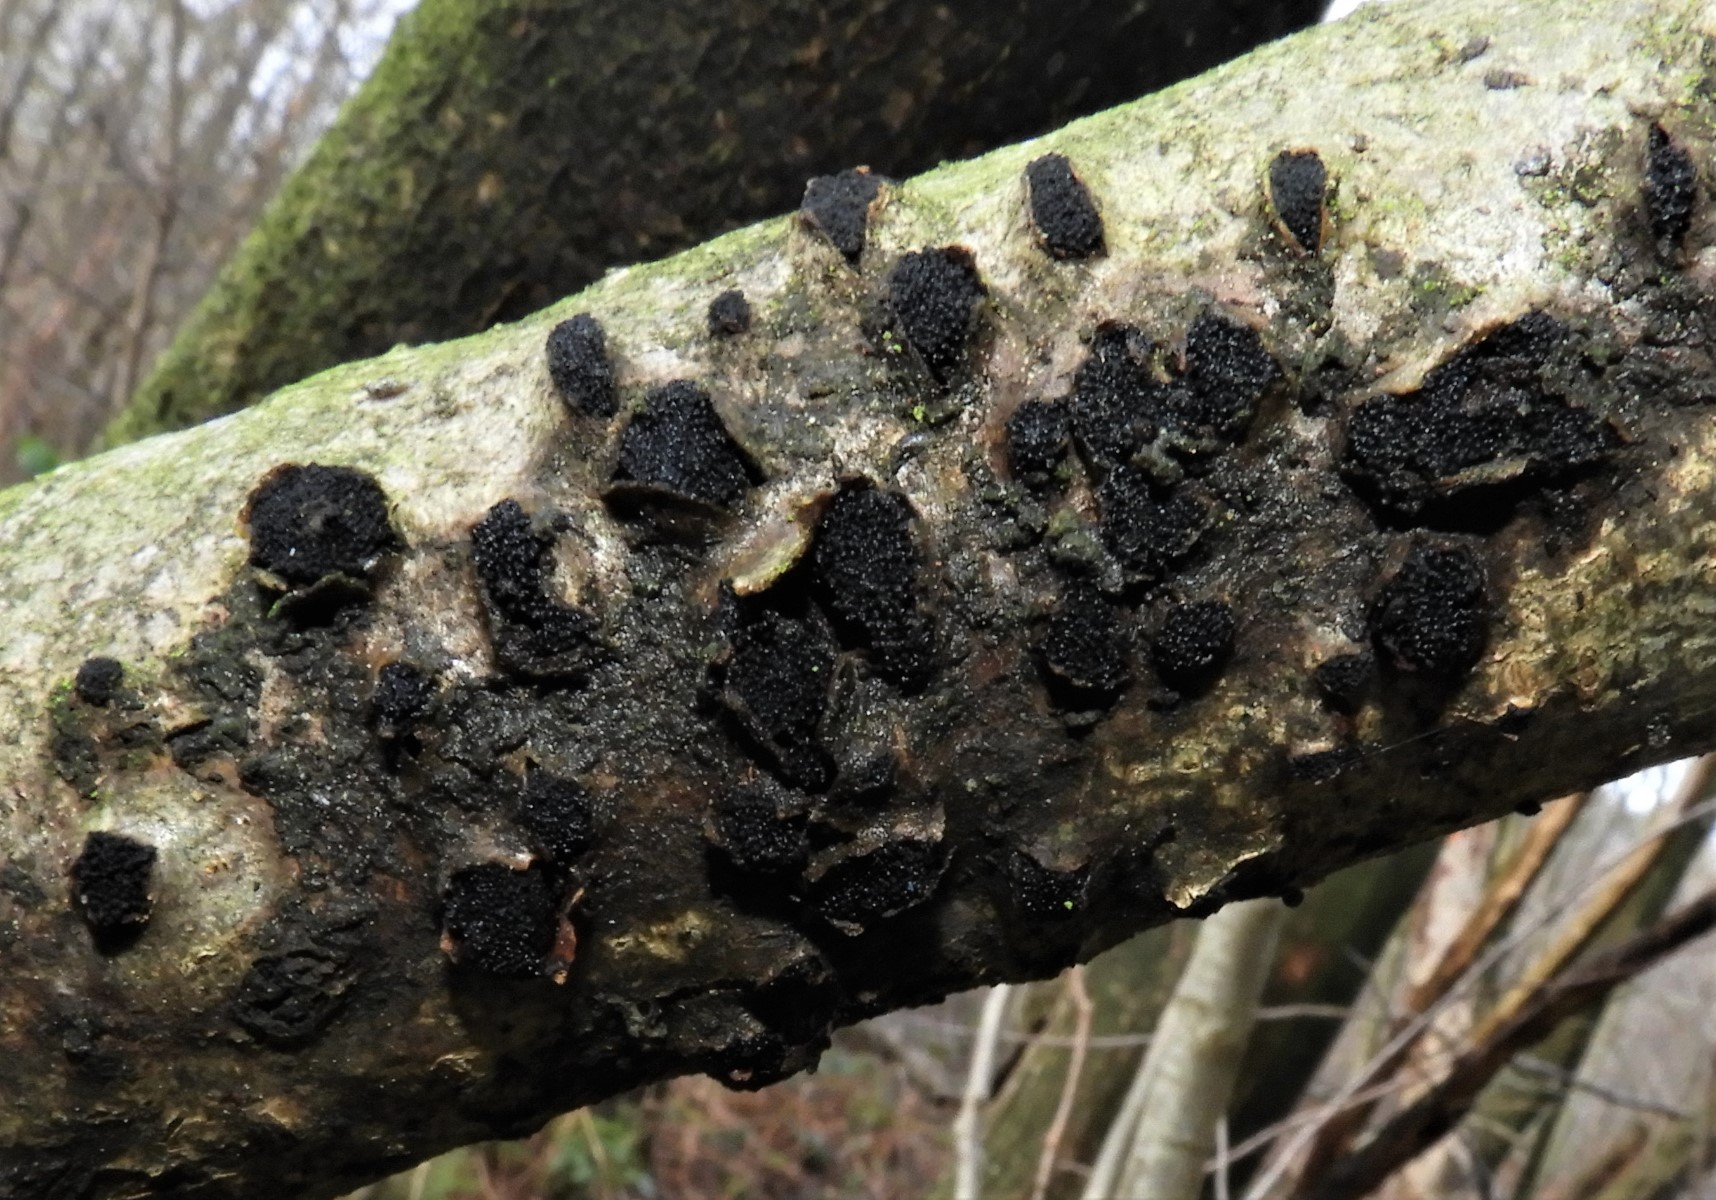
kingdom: Fungi
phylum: Ascomycota
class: Sordariomycetes
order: Xylariales
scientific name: Xylariales
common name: stødsvampordenen
